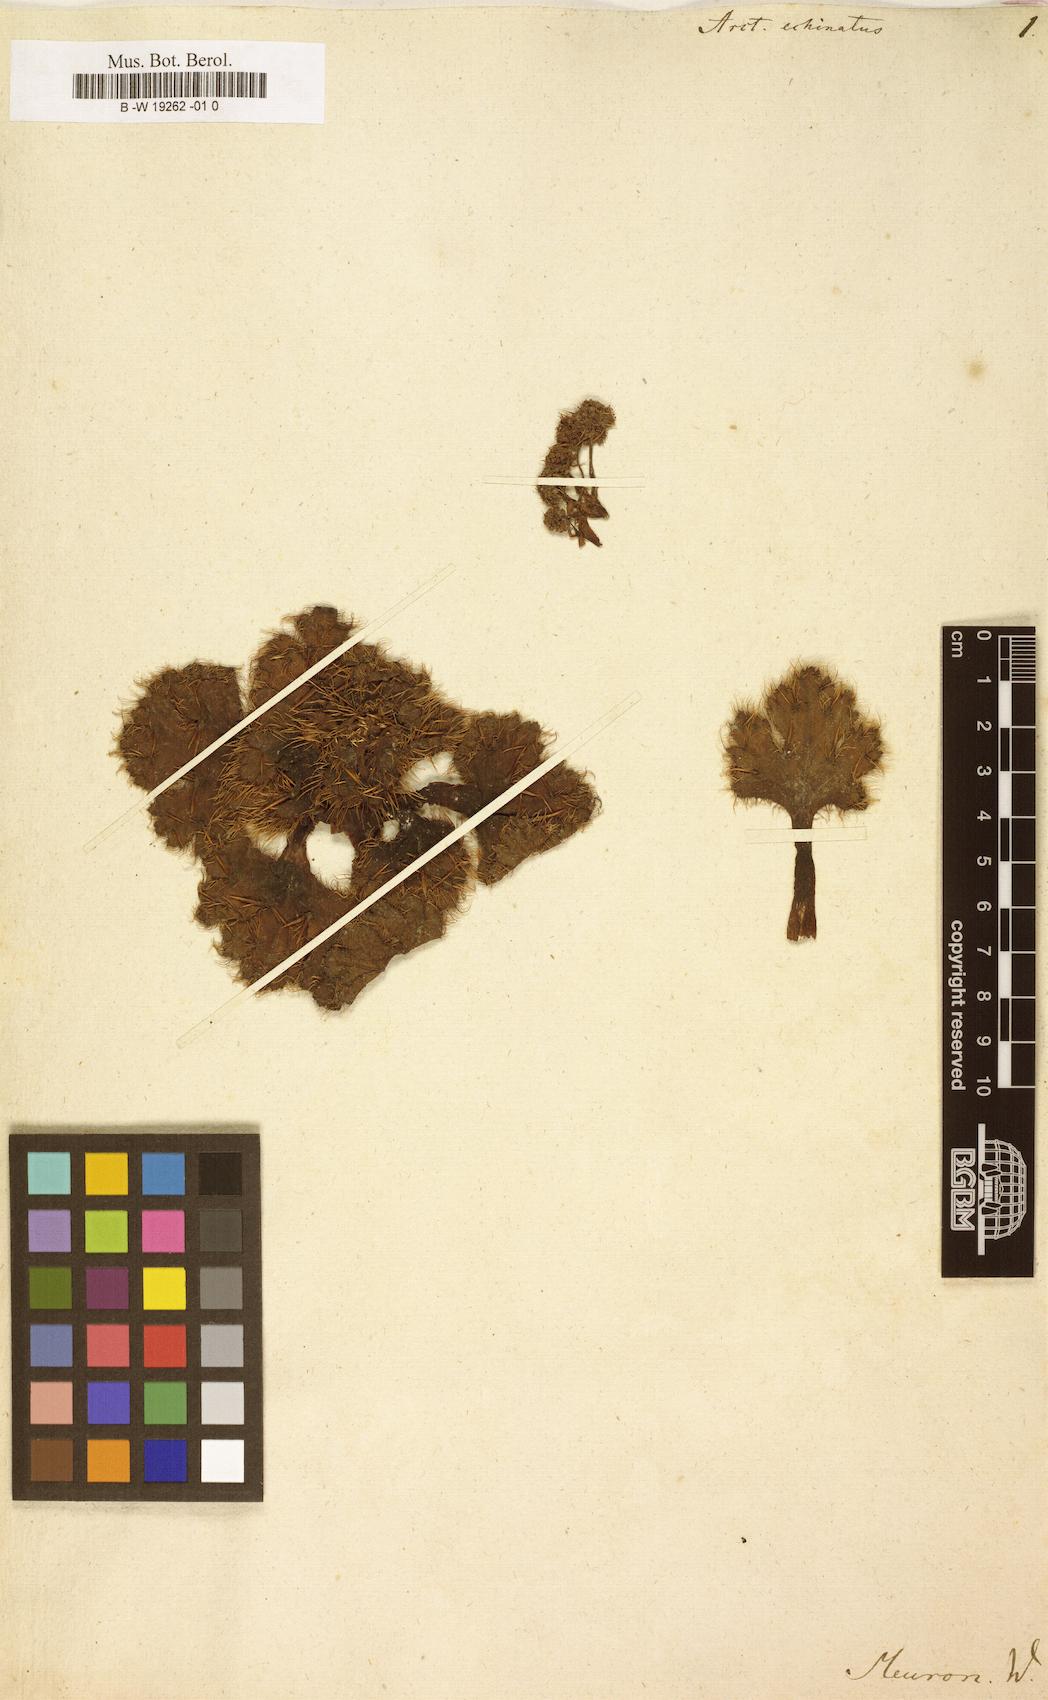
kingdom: Plantae
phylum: Tracheophyta
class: Magnoliopsida
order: Apiales
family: Apiaceae
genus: Arctopus
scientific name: Arctopus echinatus
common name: Platdoring
